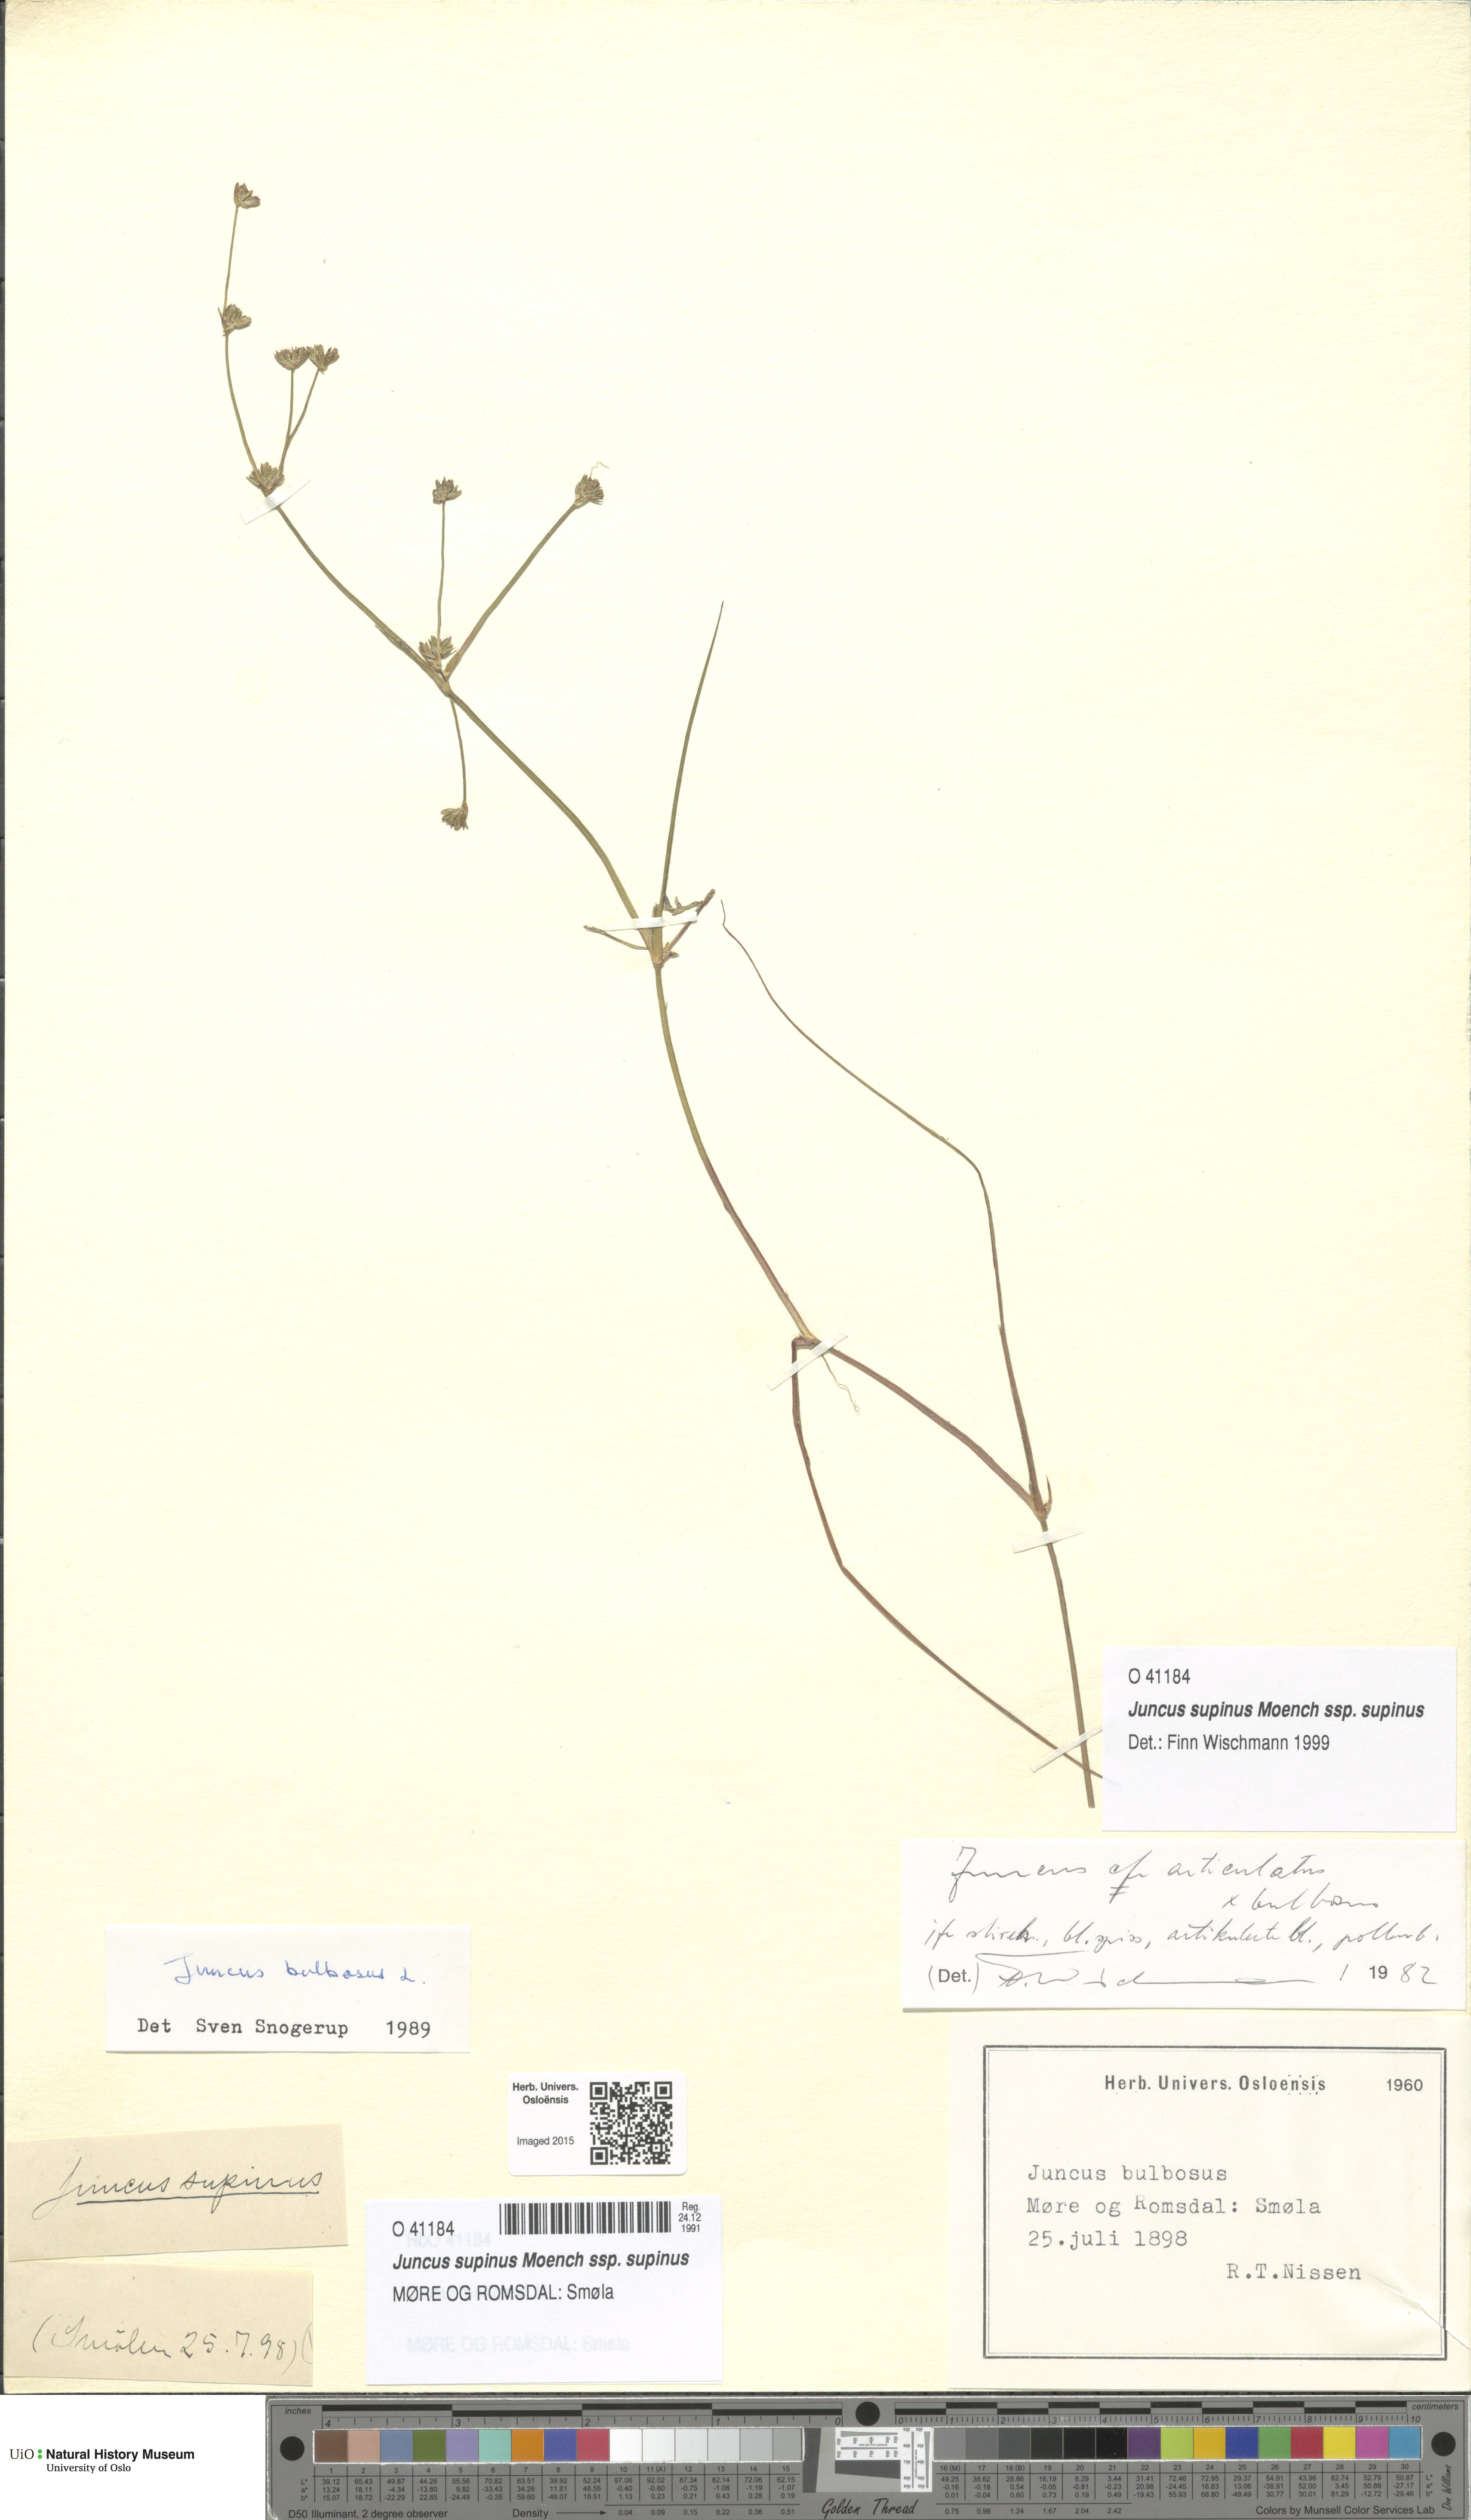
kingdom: Plantae
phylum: Tracheophyta
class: Liliopsida
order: Poales
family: Juncaceae
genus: Juncus
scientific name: Juncus bulbosus
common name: Bulbous rush
